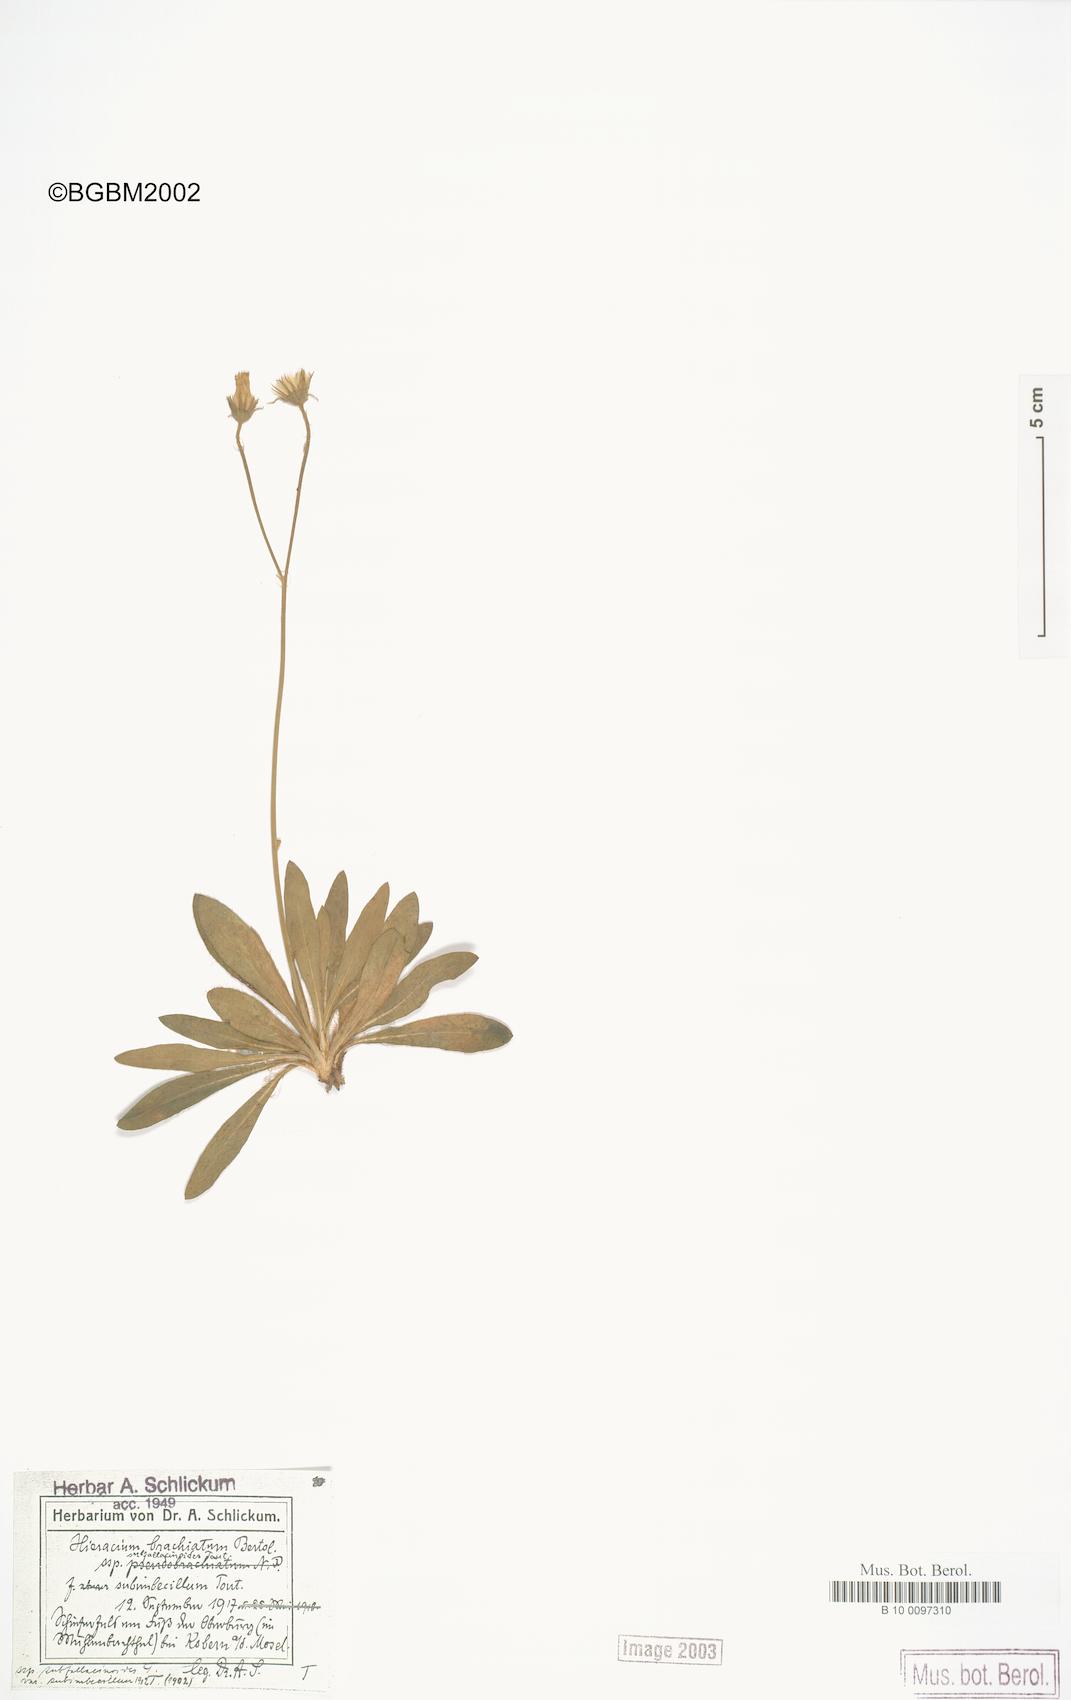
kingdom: Plantae
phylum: Tracheophyta
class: Magnoliopsida
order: Asterales
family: Asteraceae
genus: Pilosella
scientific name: Pilosella acutifolia
